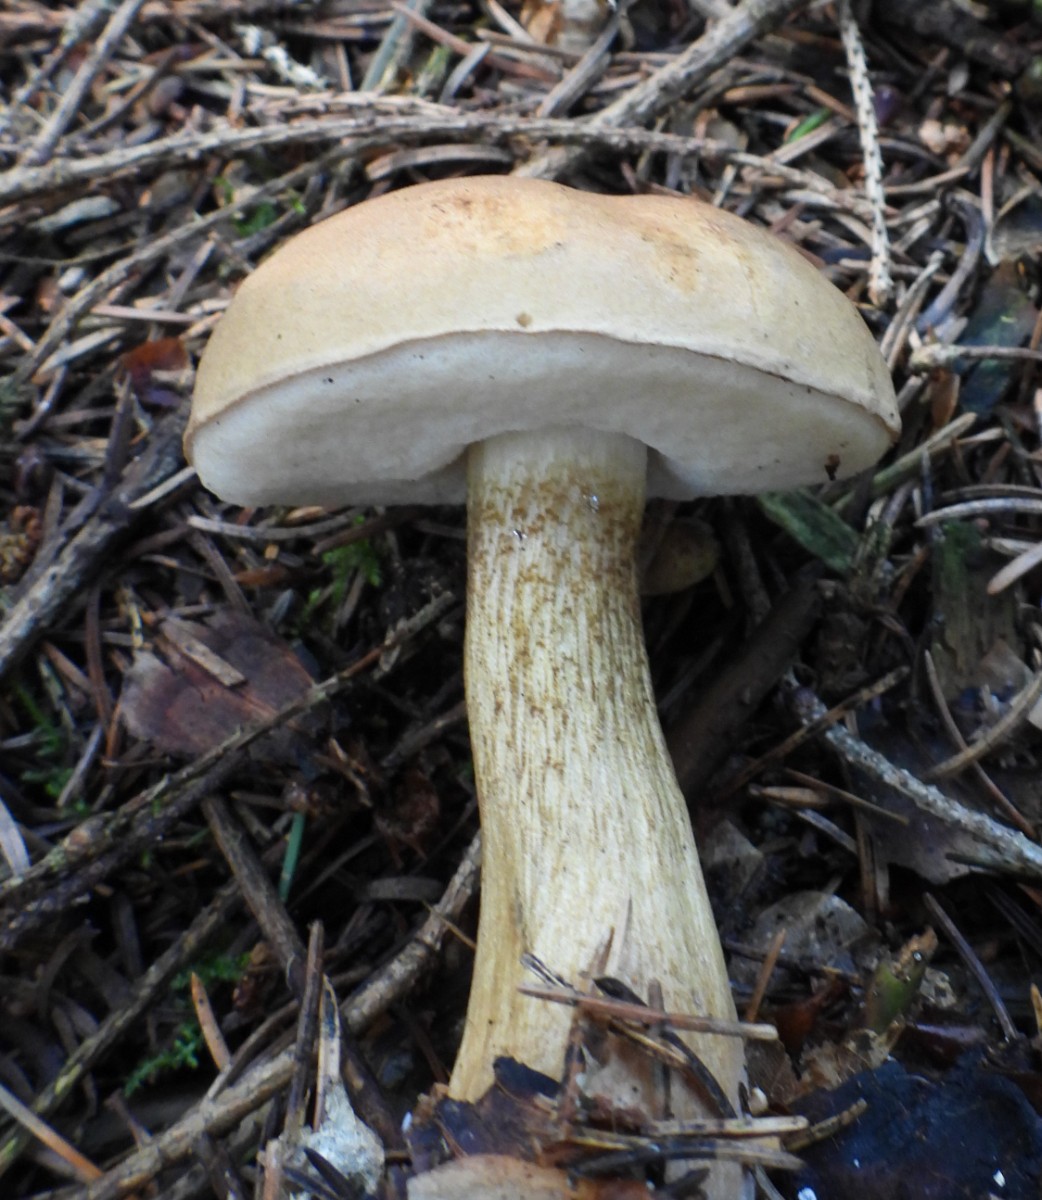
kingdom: Fungi
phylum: Basidiomycota
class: Agaricomycetes
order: Boletales
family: Boletaceae
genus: Tylopilus
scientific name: Tylopilus felleus
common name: galderørhat
